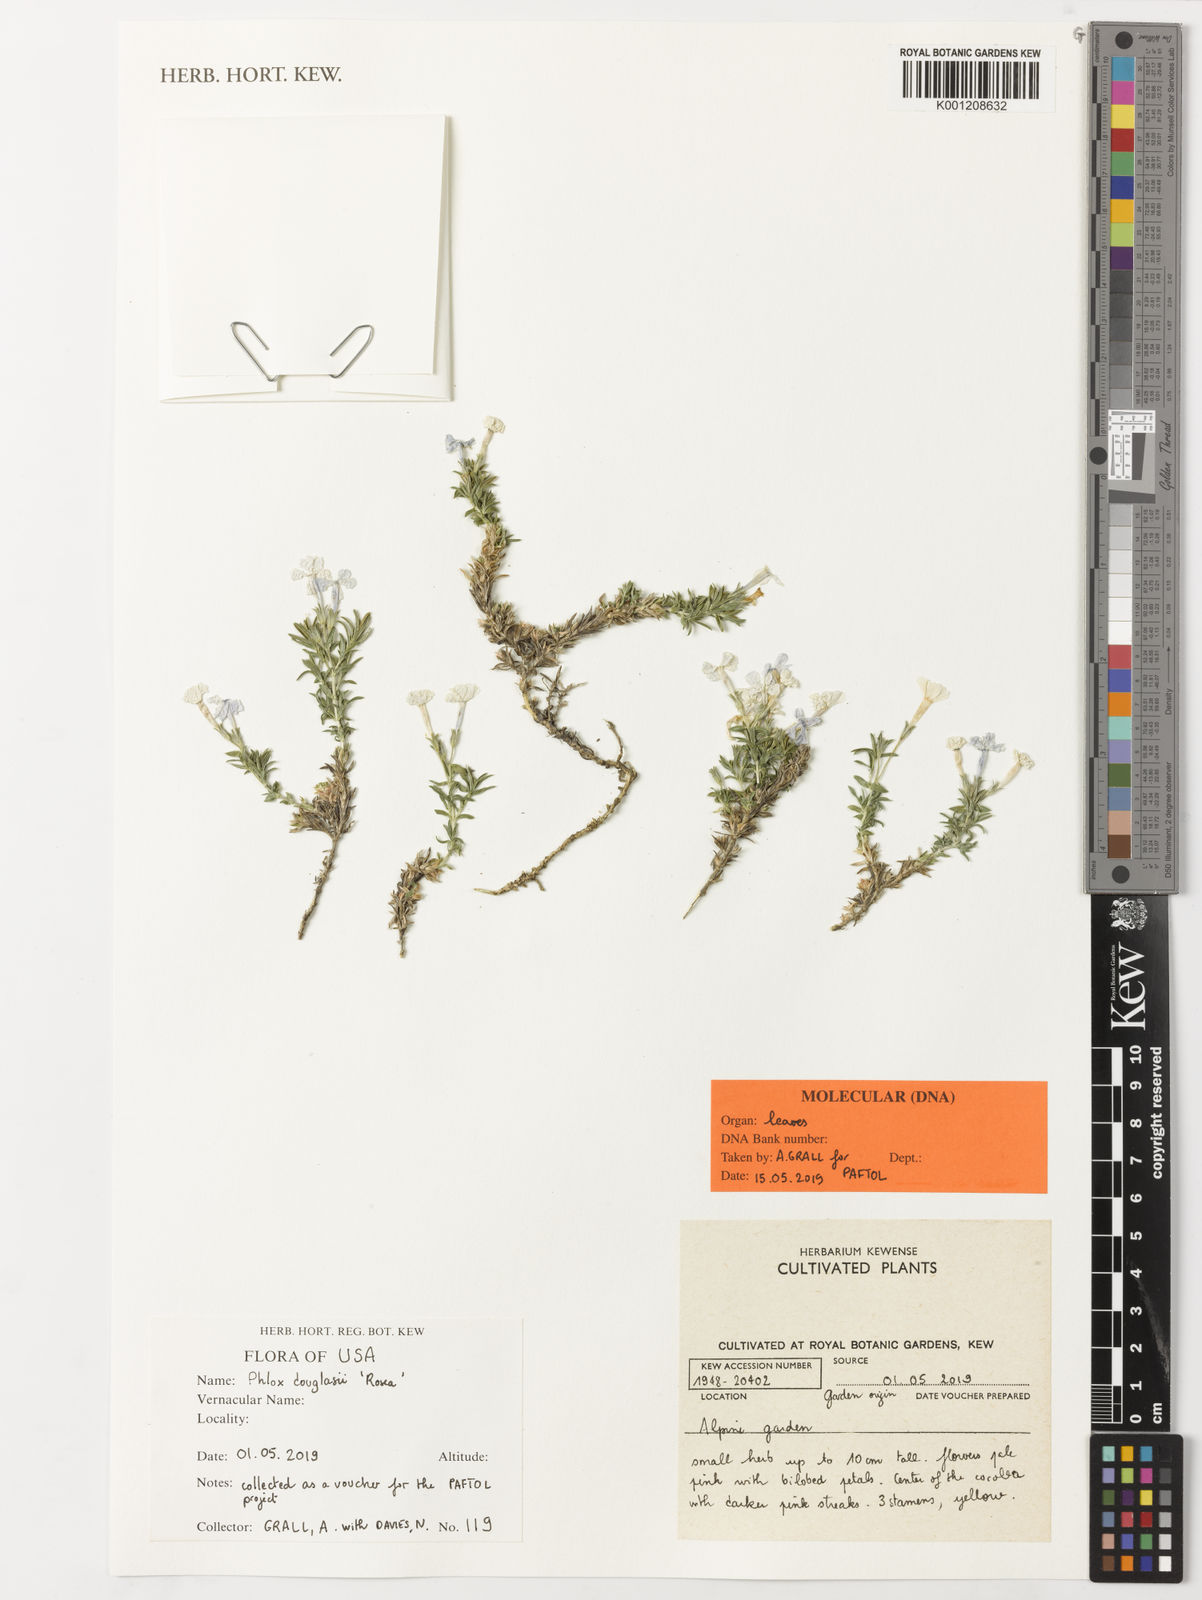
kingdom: Plantae
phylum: Tracheophyta
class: Magnoliopsida
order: Ericales
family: Polemoniaceae
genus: Phlox
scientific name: Phlox douglasii
